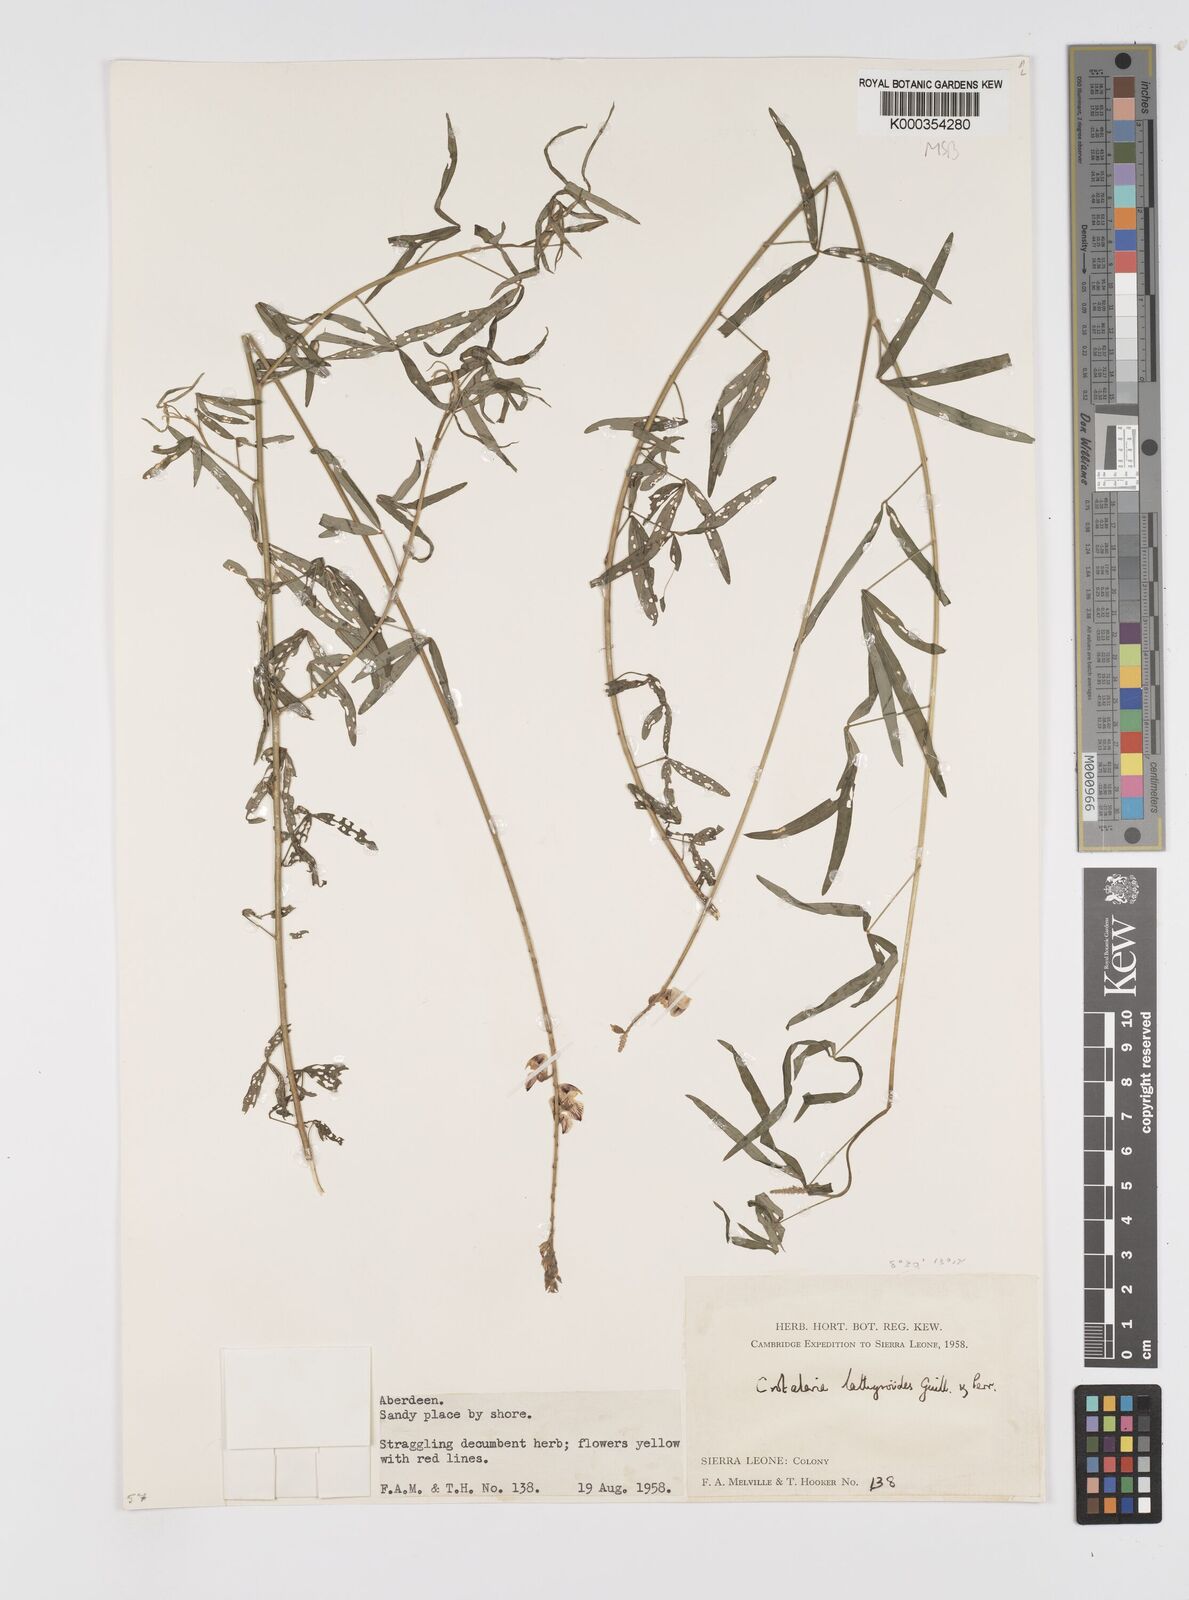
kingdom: Plantae
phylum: Tracheophyta
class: Magnoliopsida
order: Fabales
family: Fabaceae
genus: Crotalaria
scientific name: Crotalaria lathyroides
